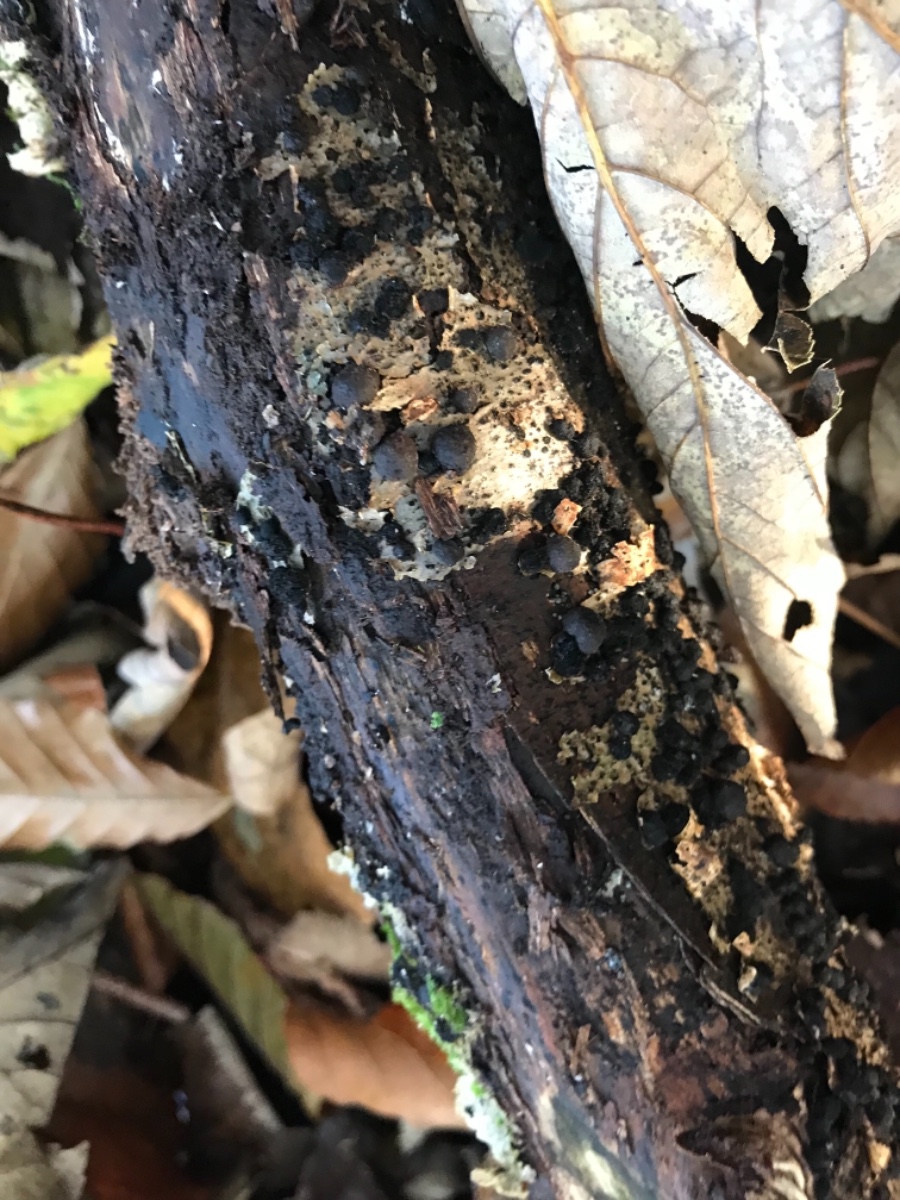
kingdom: Fungi
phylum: Ascomycota
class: Sordariomycetes
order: Xylariales
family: Hypoxylaceae
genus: Hypoxylon
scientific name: Hypoxylon
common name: kulbær
